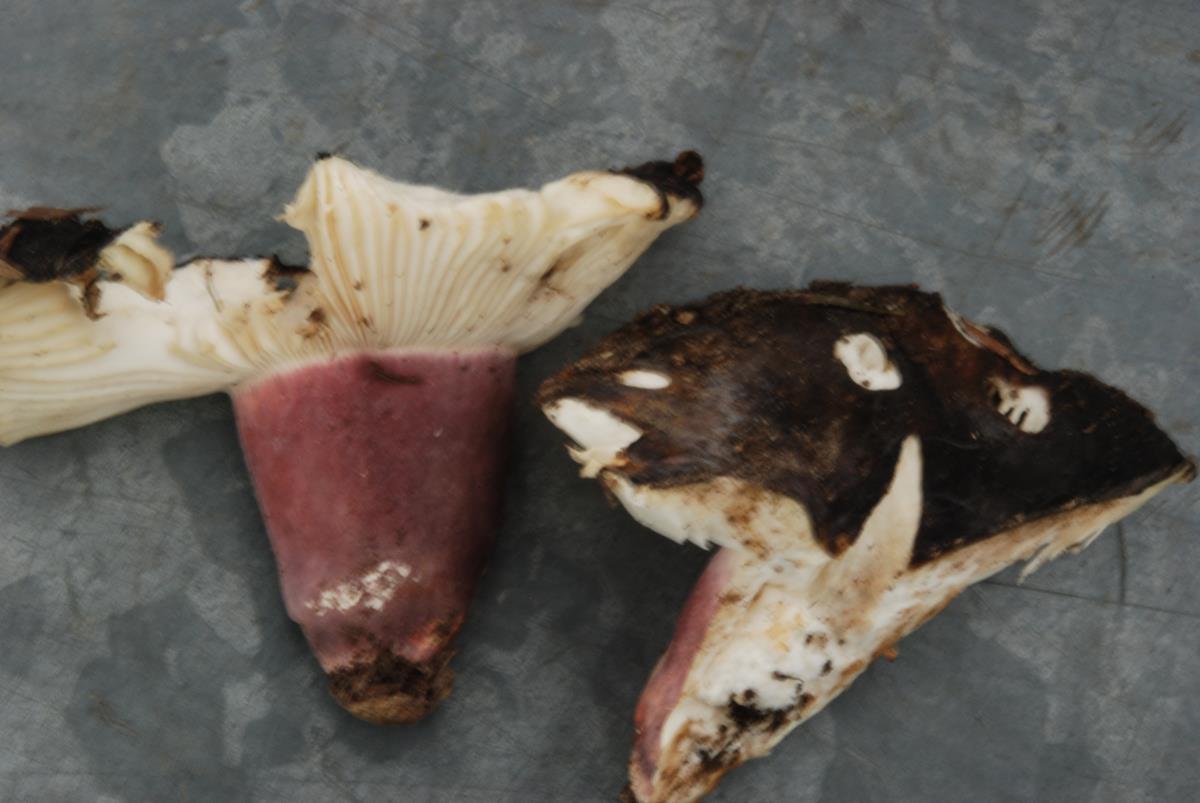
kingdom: Fungi
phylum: Basidiomycota
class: Agaricomycetes
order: Russulales
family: Russulaceae
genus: Russula
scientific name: Russula
